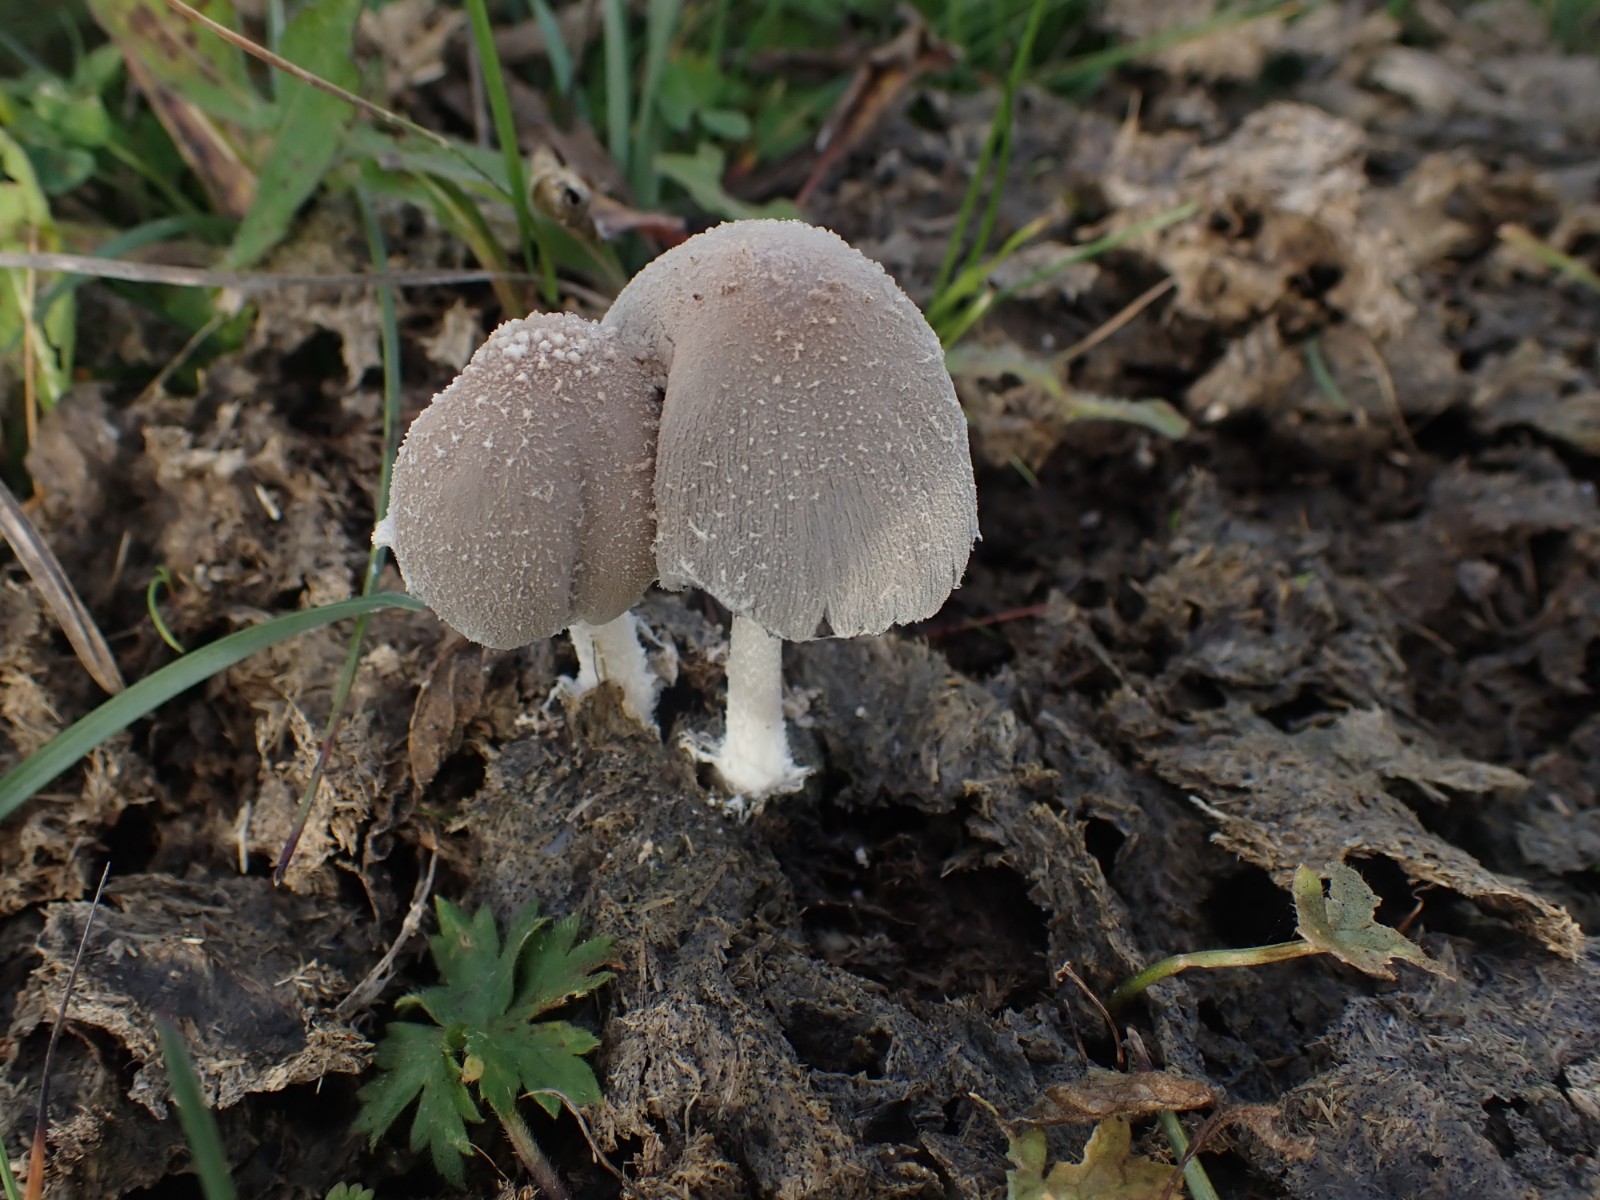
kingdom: Fungi
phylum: Basidiomycota
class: Agaricomycetes
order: Agaricales
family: Psathyrellaceae
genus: Coprinopsis
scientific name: Coprinopsis pseudonivea
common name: pudret blækhat
